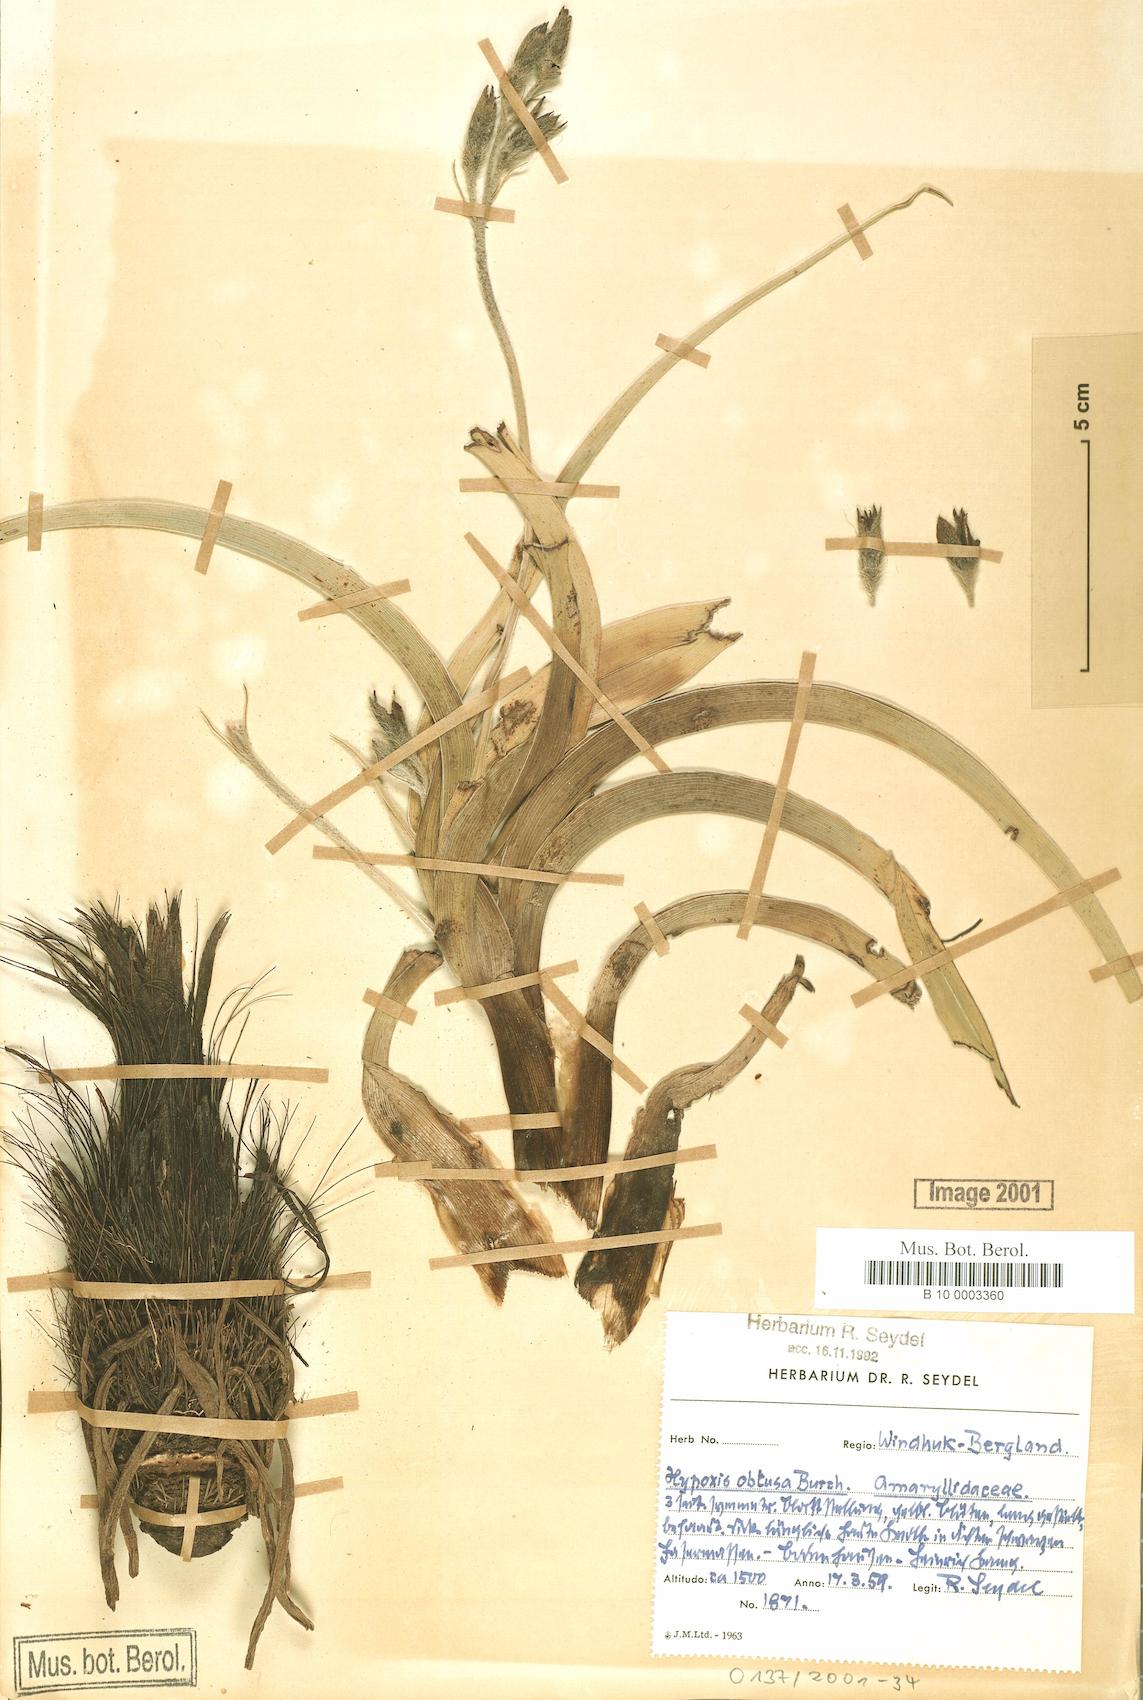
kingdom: Plantae
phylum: Tracheophyta
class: Liliopsida
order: Asparagales
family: Hypoxidaceae
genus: Hypoxis
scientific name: Hypoxis obtusa
